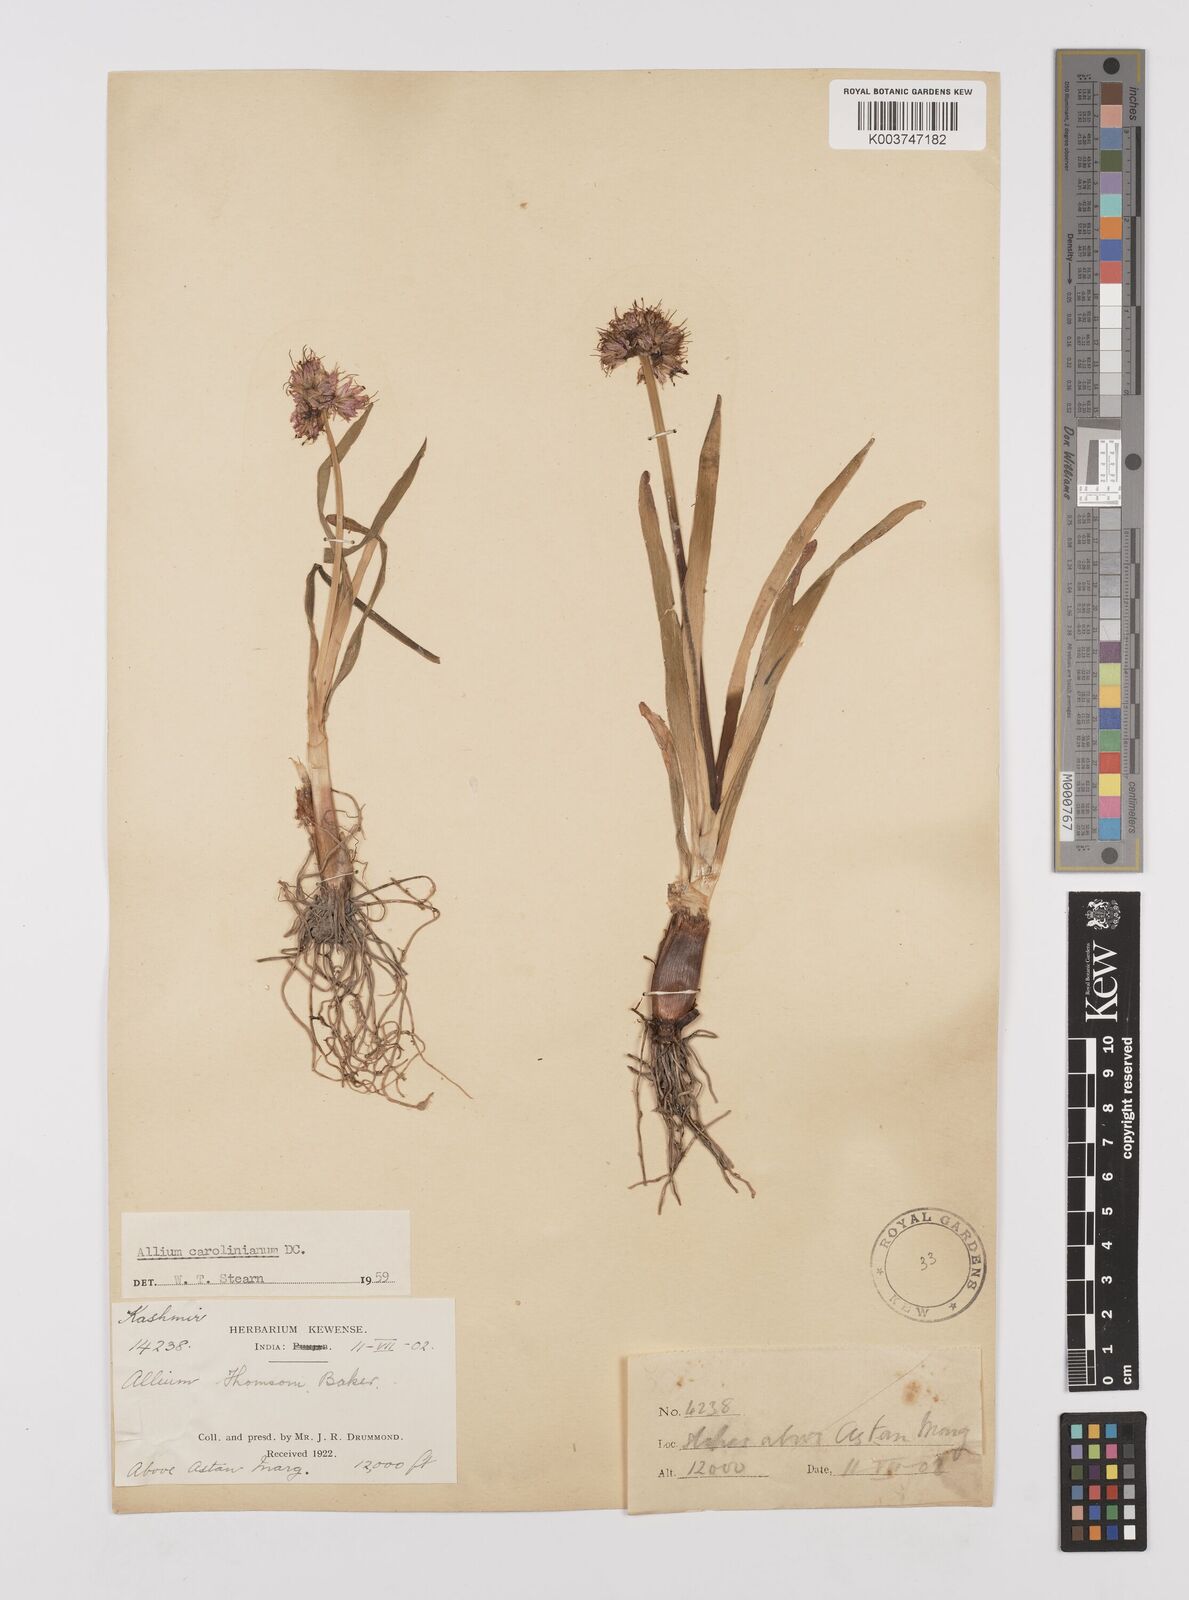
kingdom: Plantae
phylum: Tracheophyta
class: Liliopsida
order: Asparagales
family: Amaryllidaceae
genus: Allium
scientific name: Allium carolinianum
